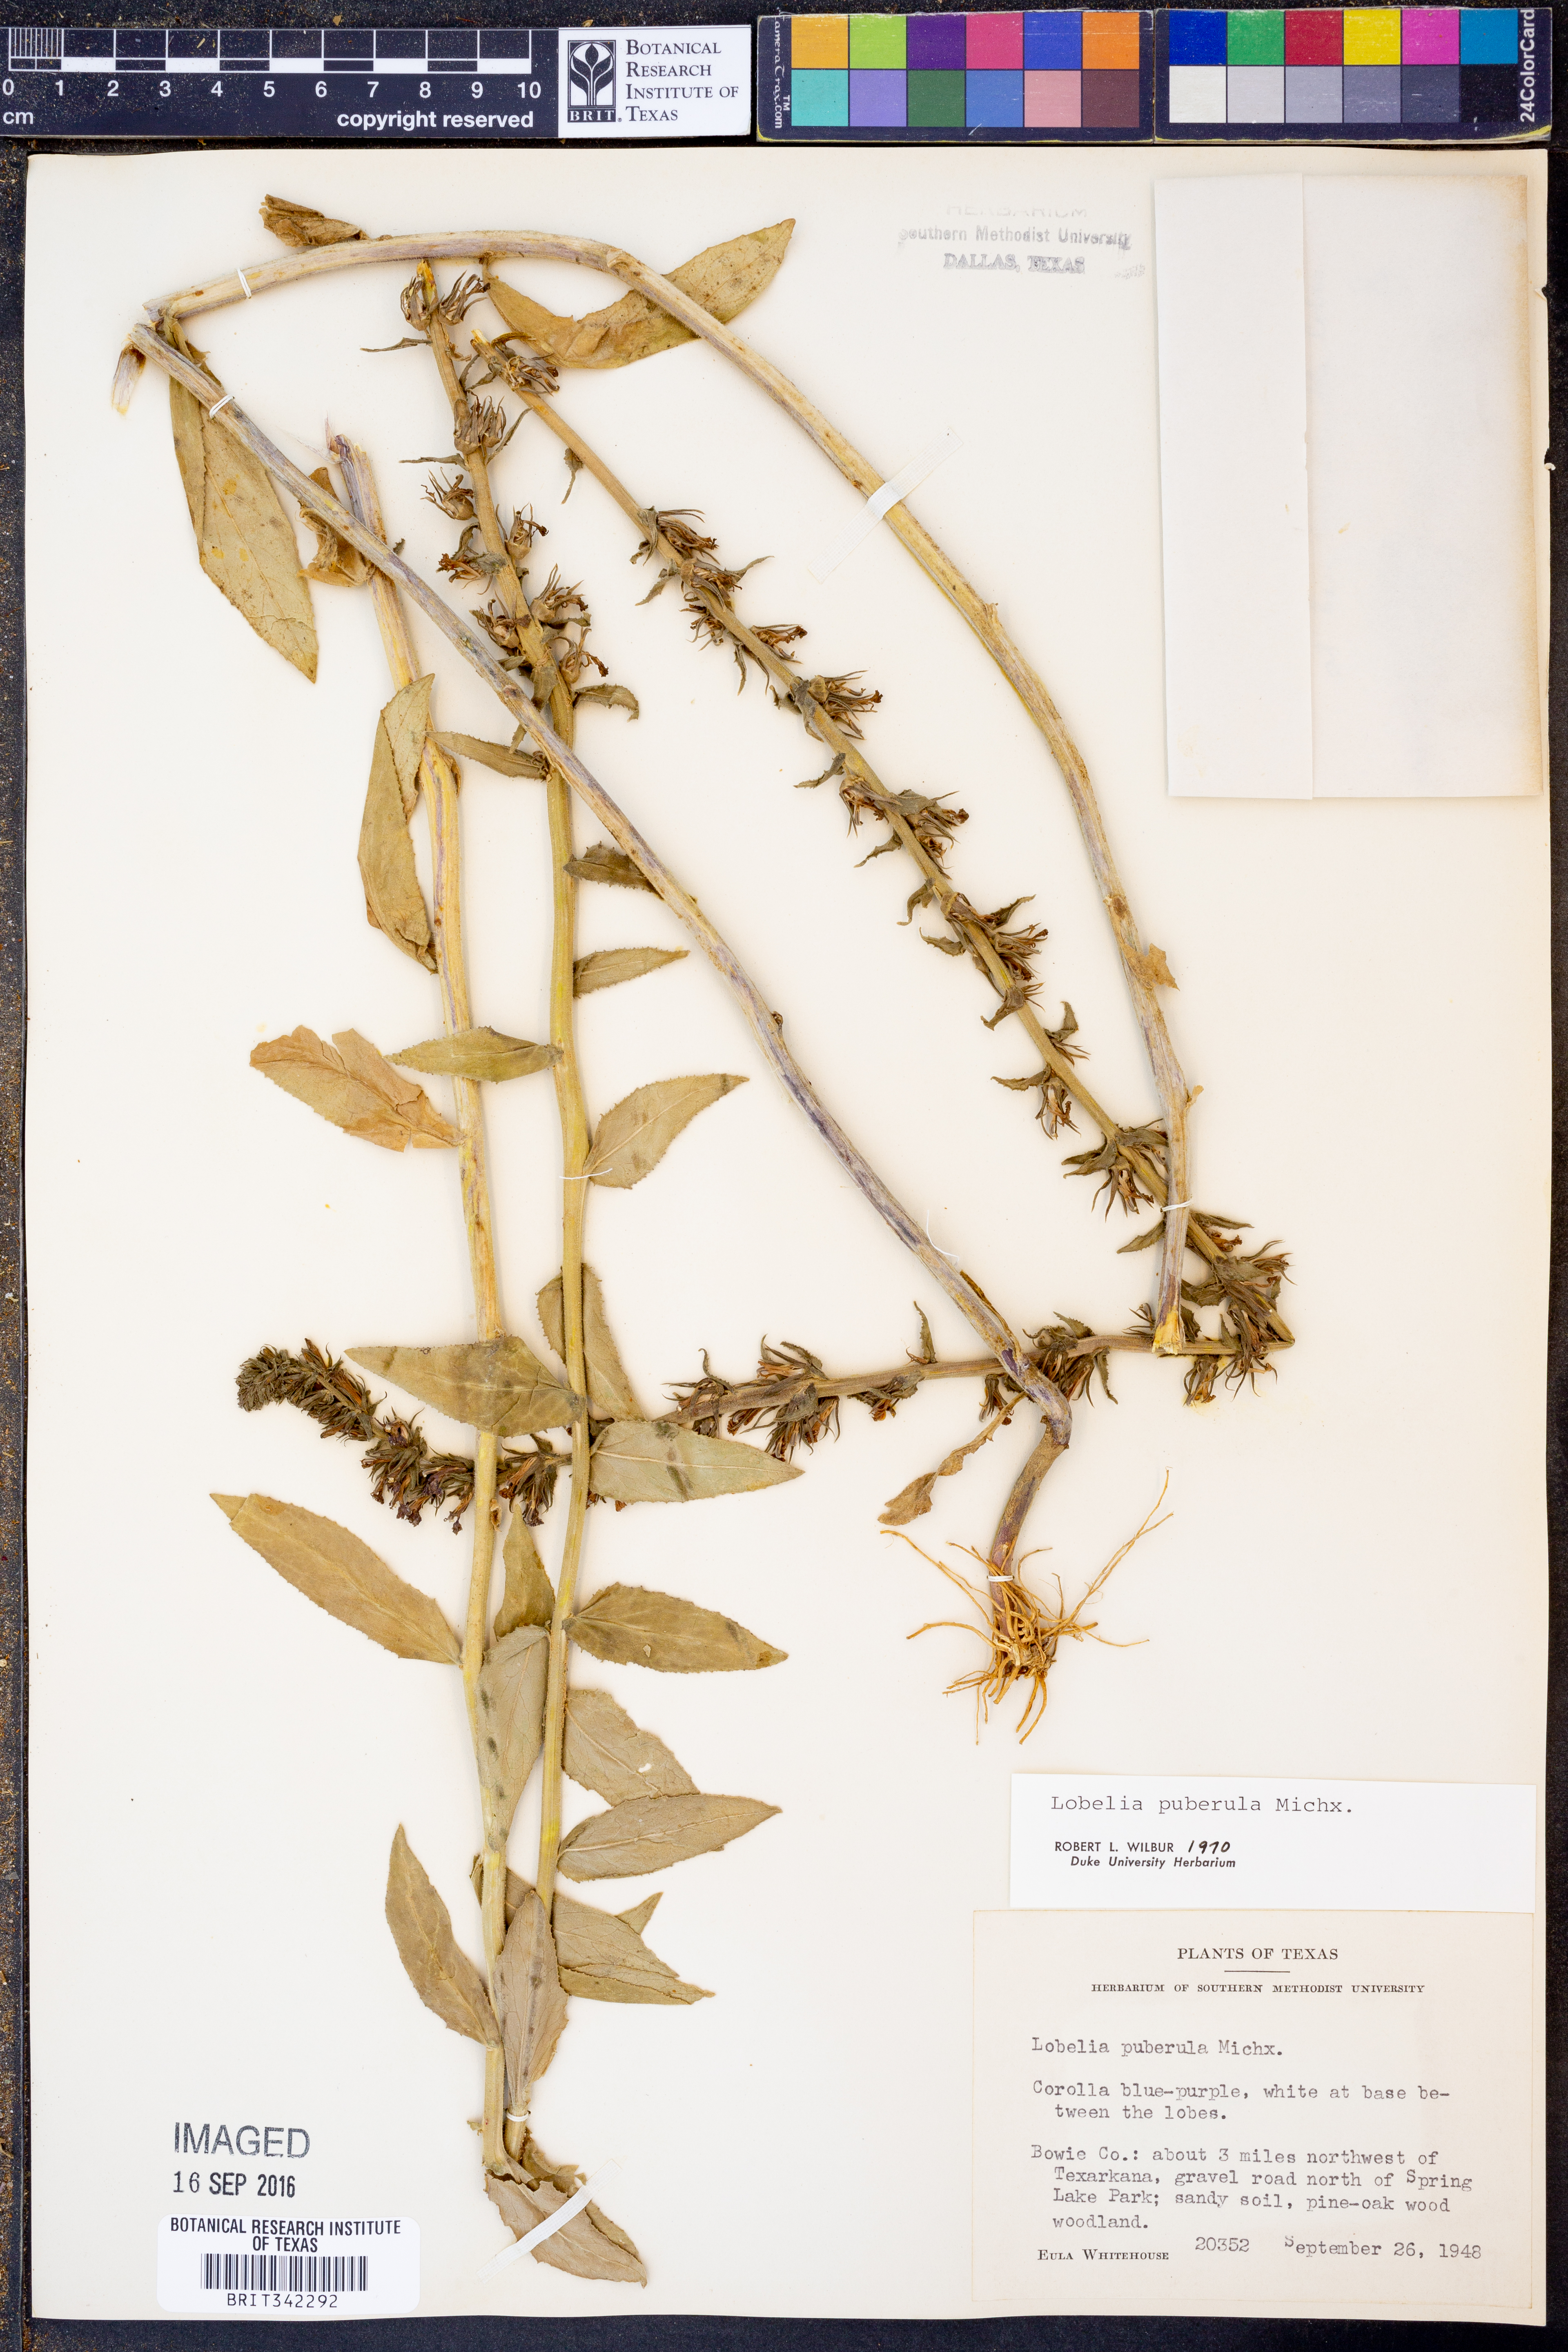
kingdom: Plantae
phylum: Tracheophyta
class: Magnoliopsida
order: Asterales
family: Campanulaceae
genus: Lobelia
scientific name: Lobelia puberula
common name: Purple dewdrop
